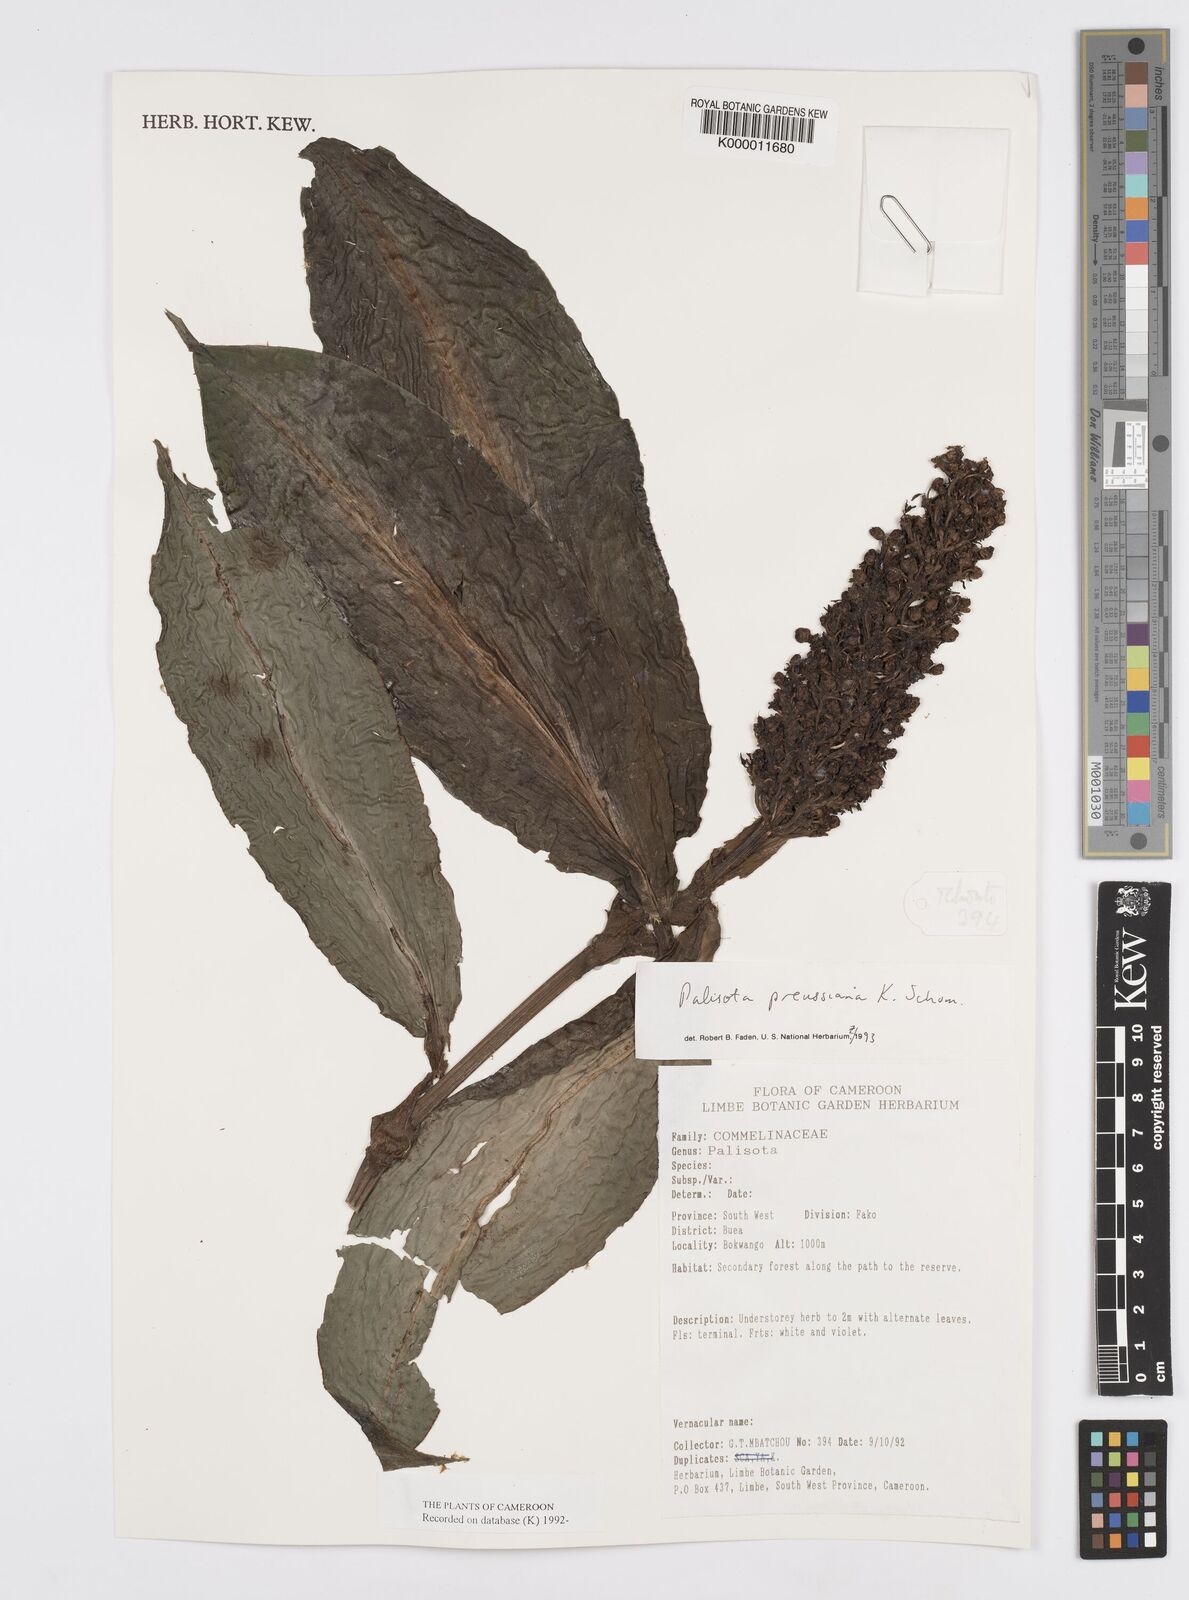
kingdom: Plantae
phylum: Tracheophyta
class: Liliopsida
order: Commelinales
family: Commelinaceae
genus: Palisota
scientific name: Palisota preussiana
